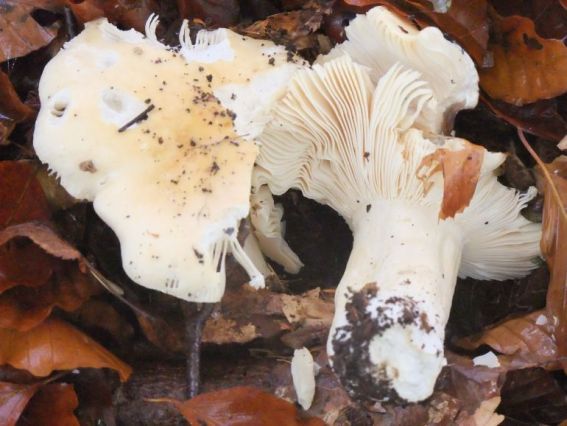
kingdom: Fungi
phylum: Basidiomycota
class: Agaricomycetes
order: Russulales
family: Russulaceae
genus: Russula
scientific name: Russula fellea
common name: galde-skørhat
